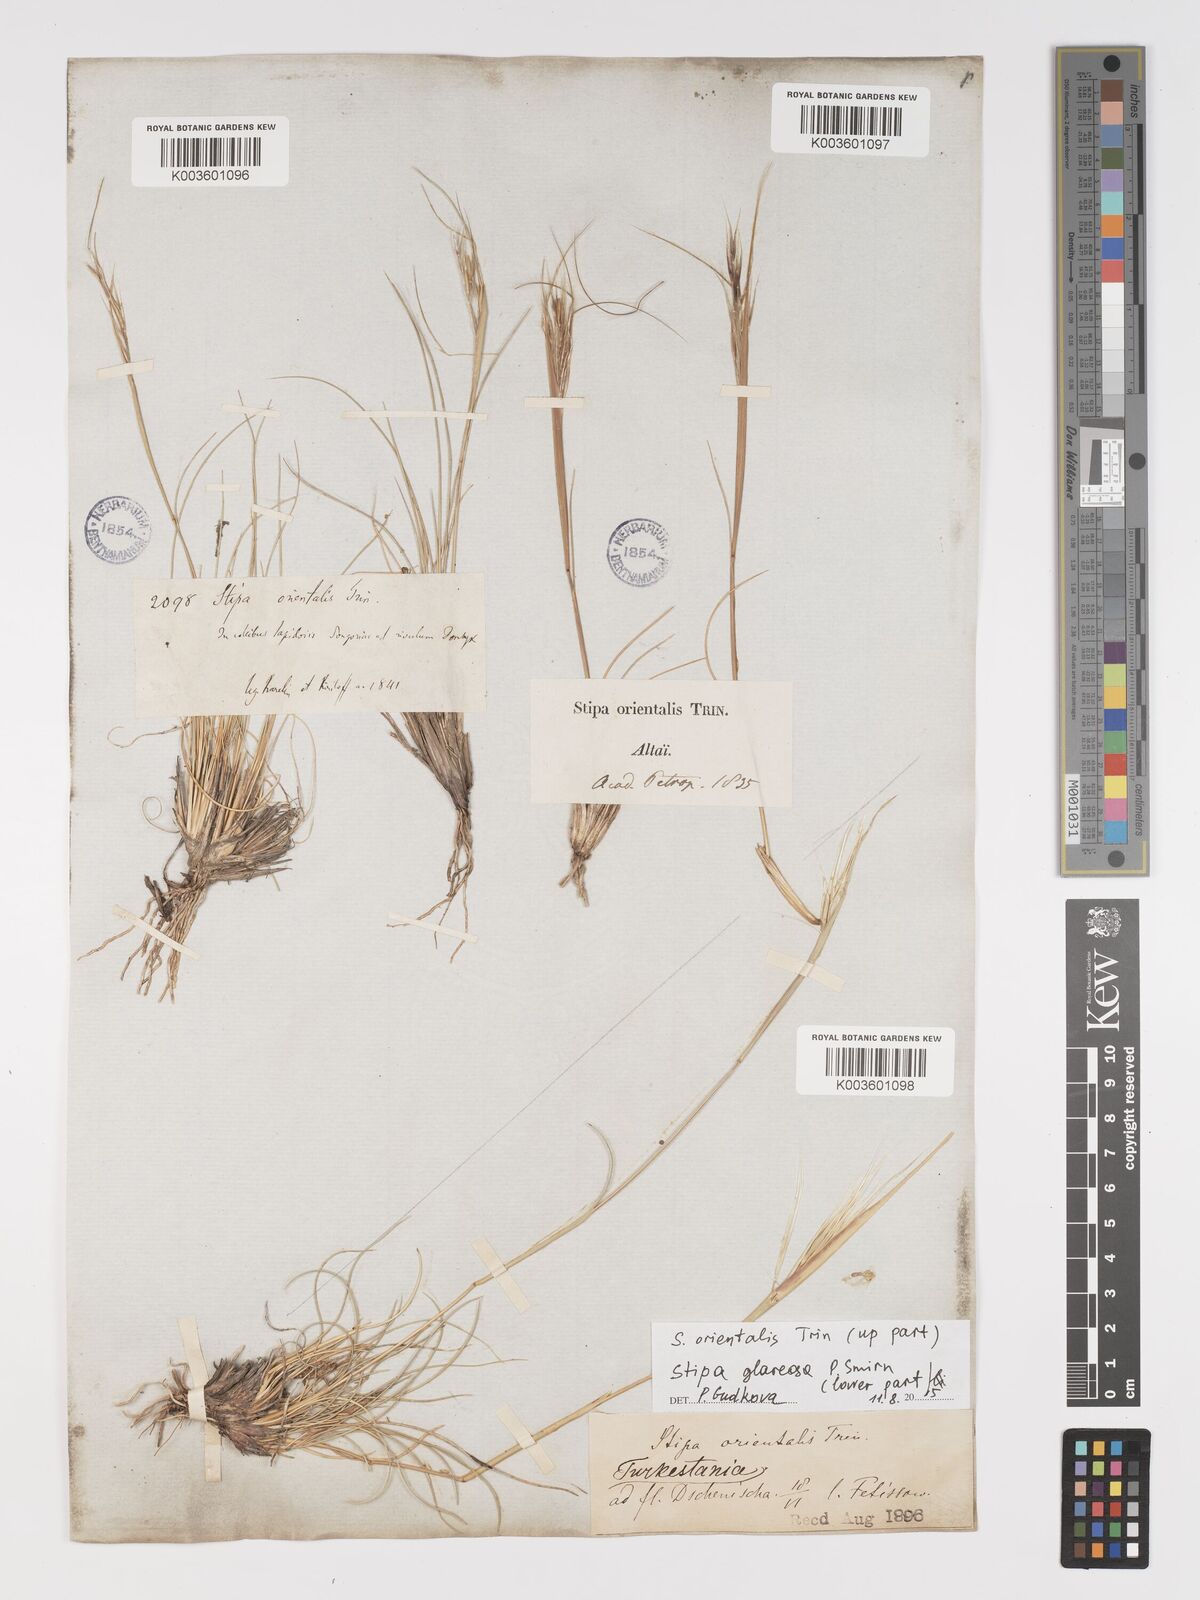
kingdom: Plantae
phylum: Tracheophyta
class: Liliopsida
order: Poales
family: Poaceae
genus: Stipa
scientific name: Stipa orientalis
